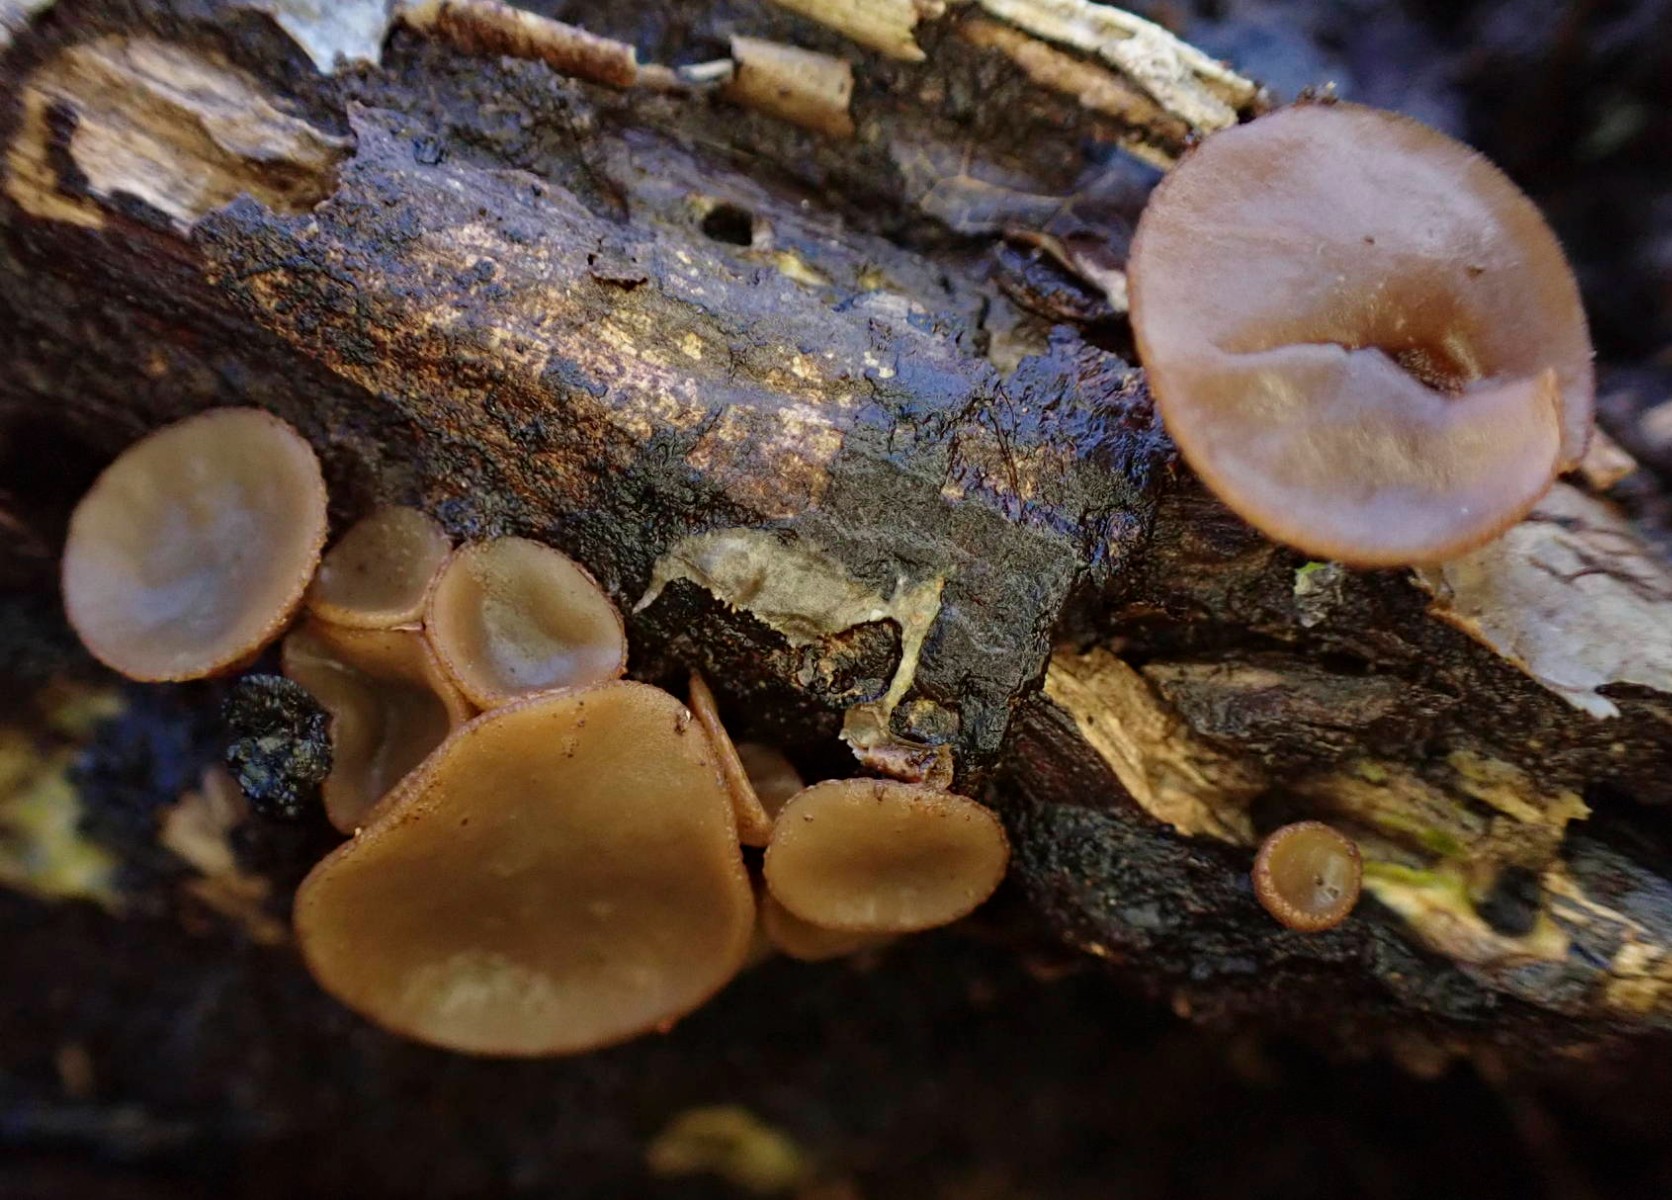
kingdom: Fungi
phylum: Ascomycota
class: Leotiomycetes
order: Helotiales
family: Rutstroemiaceae
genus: Rutstroemia
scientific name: Rutstroemia firma
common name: gren-brunskive
